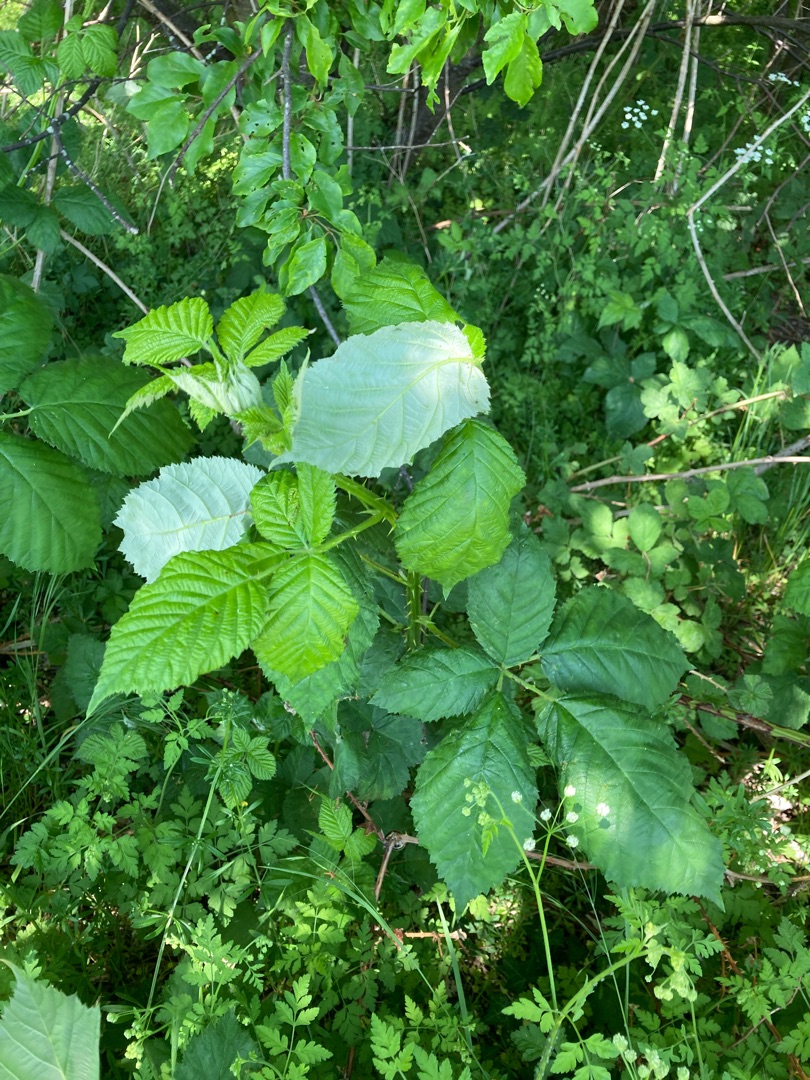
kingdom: Plantae
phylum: Tracheophyta
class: Magnoliopsida
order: Rosales
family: Rosaceae
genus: Rubus
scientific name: Rubus armeniacus
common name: Armensk brombær
